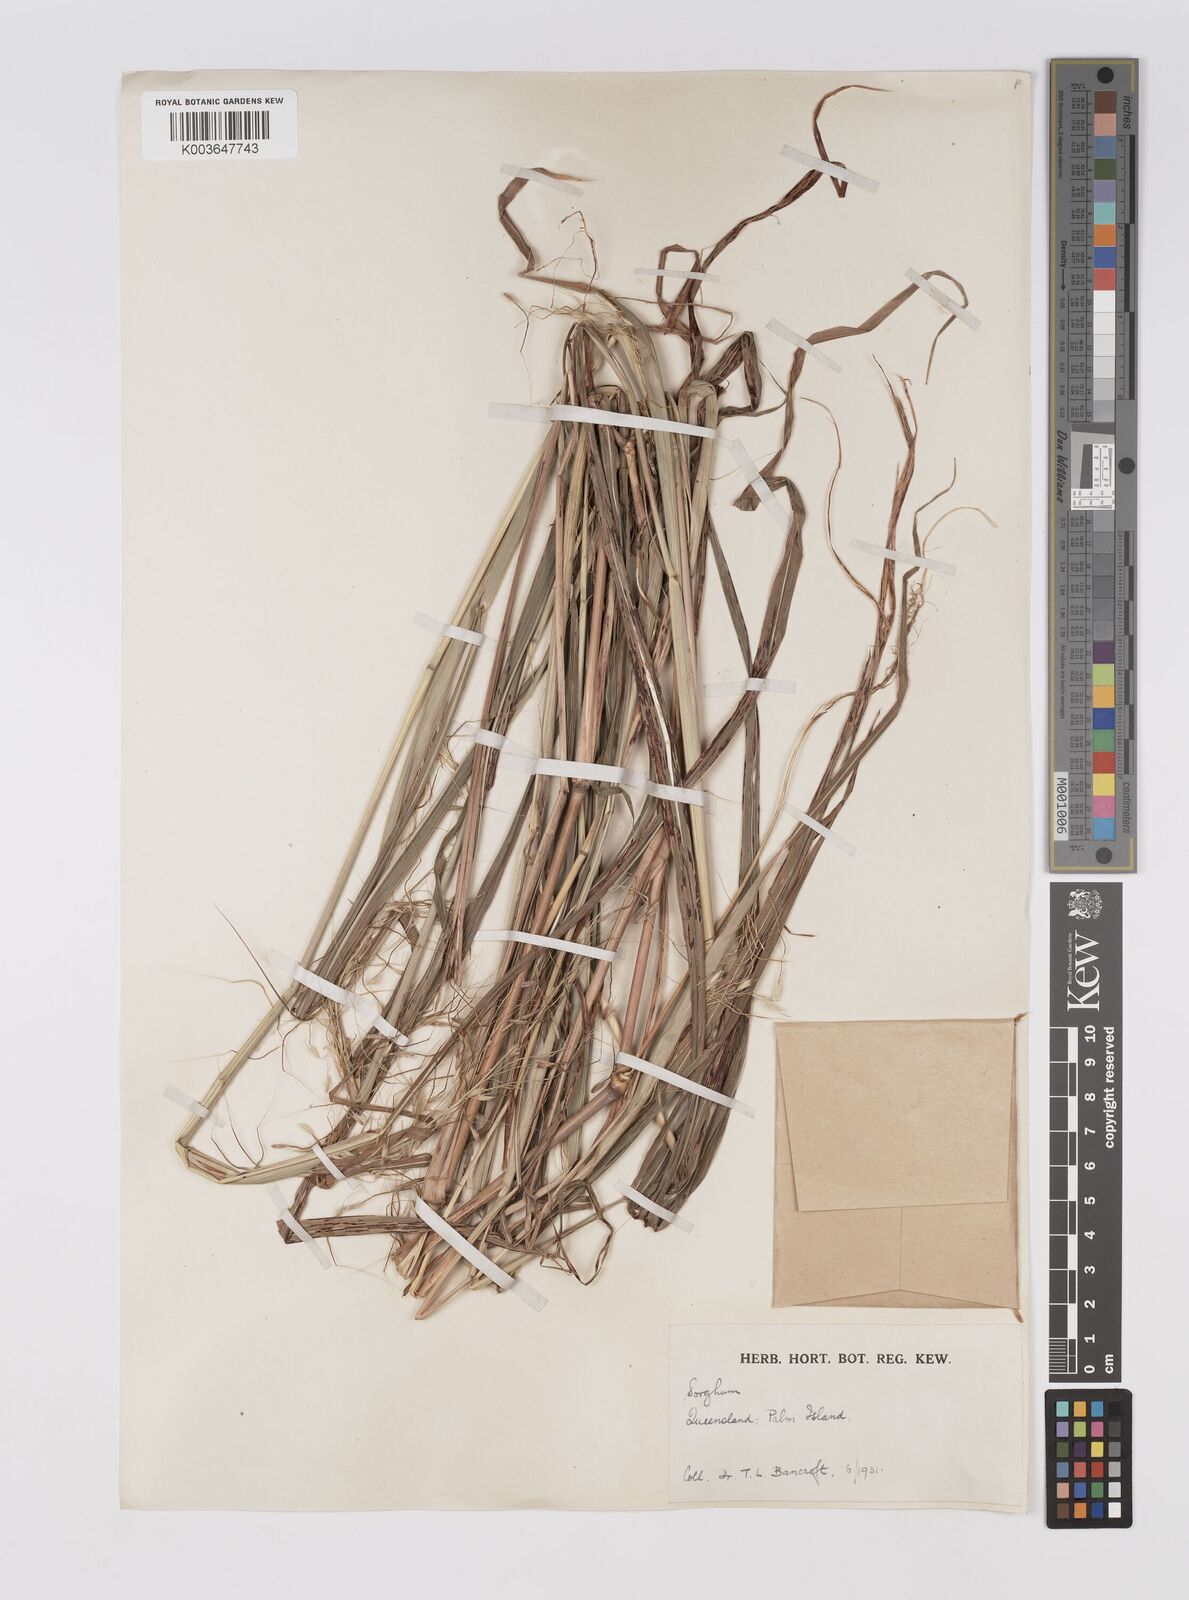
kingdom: Plantae
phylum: Tracheophyta
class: Liliopsida
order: Poales
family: Poaceae
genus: Sorghum
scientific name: Sorghum laxiflorum
